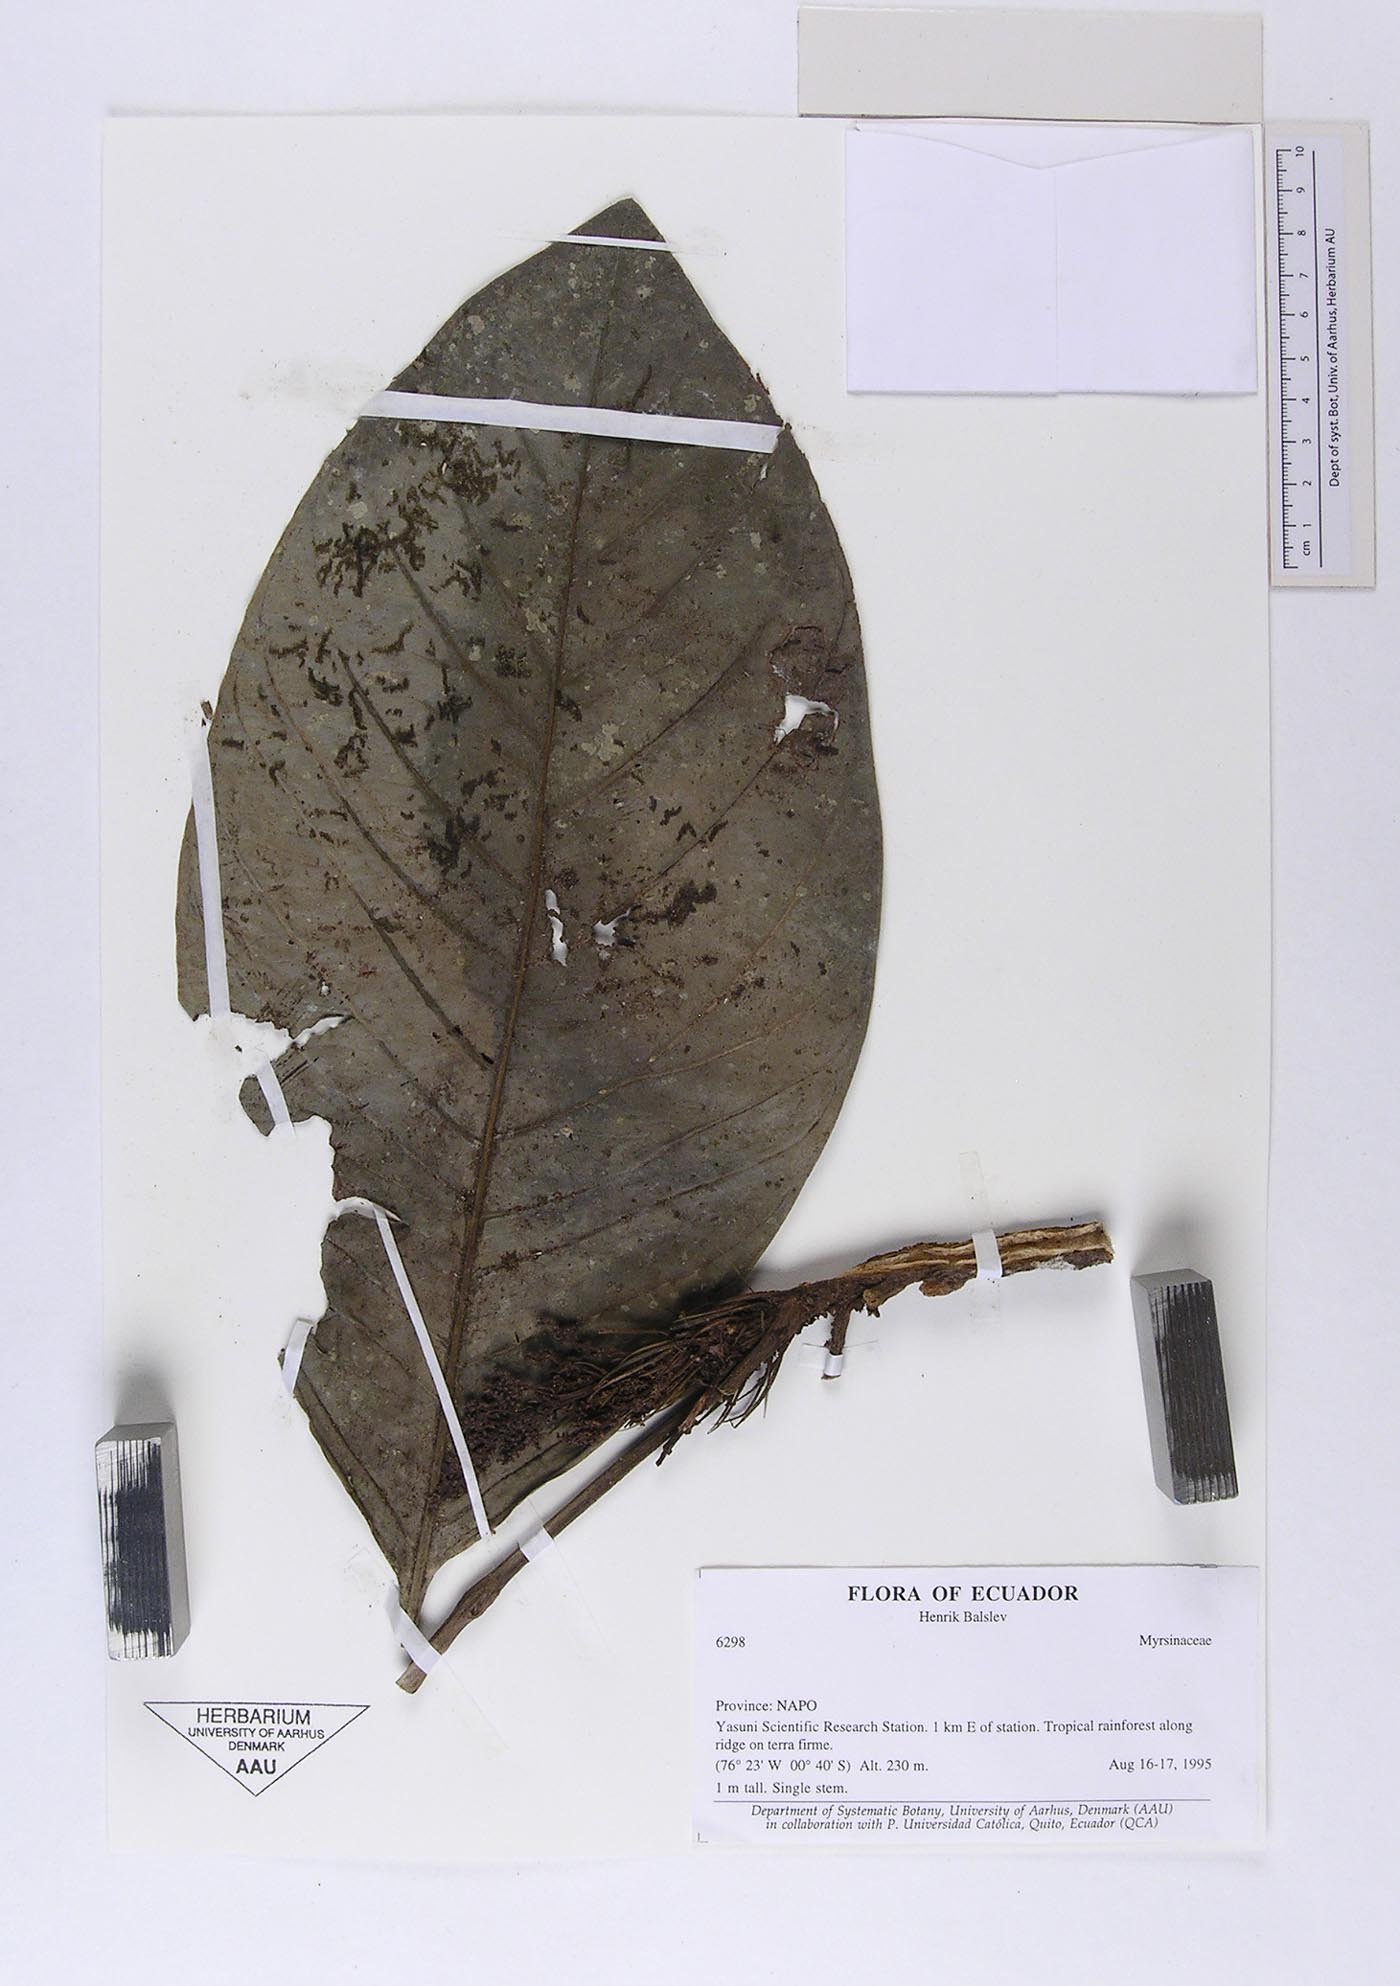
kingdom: Plantae
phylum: Tracheophyta
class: Magnoliopsida
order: Ericales
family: Primulaceae
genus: Cybianthus
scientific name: Cybianthus simplex
